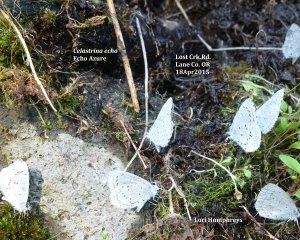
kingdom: Animalia
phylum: Arthropoda
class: Insecta
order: Lepidoptera
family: Lycaenidae
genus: Celastrina
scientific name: Celastrina ladon
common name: Echo Azure
